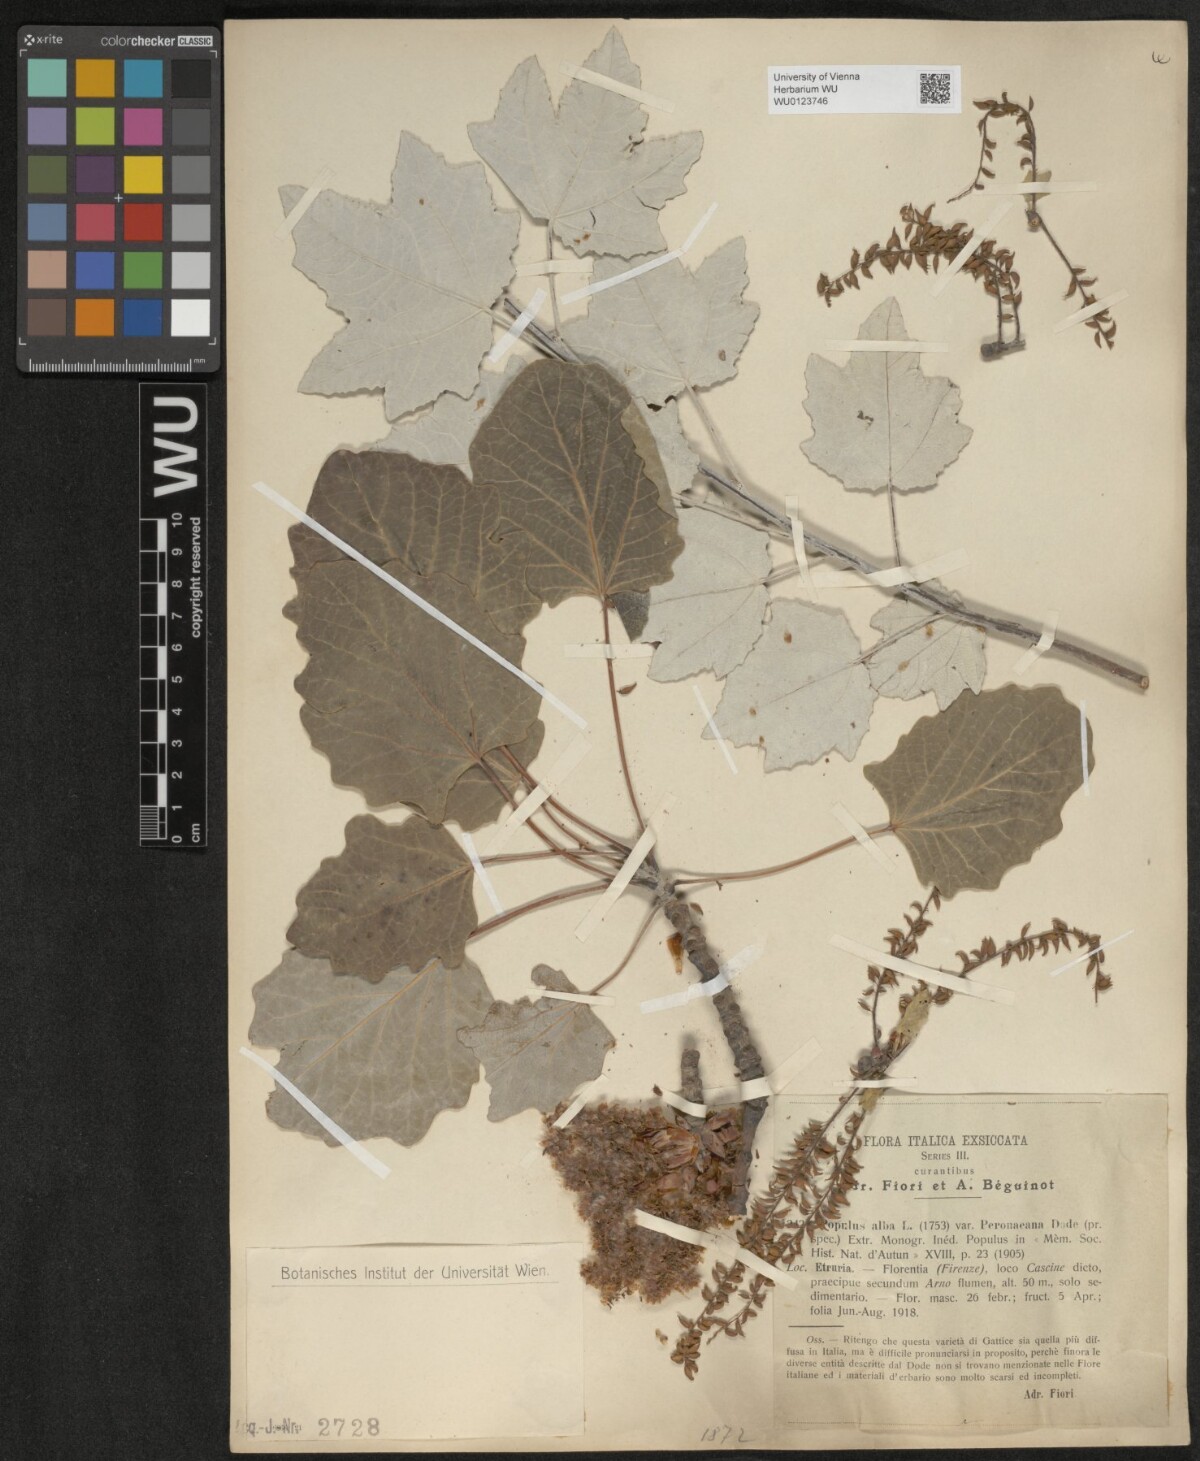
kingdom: Plantae
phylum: Tracheophyta
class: Magnoliopsida
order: Malpighiales
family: Salicaceae
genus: Populus
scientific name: Populus alba
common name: White poplar
